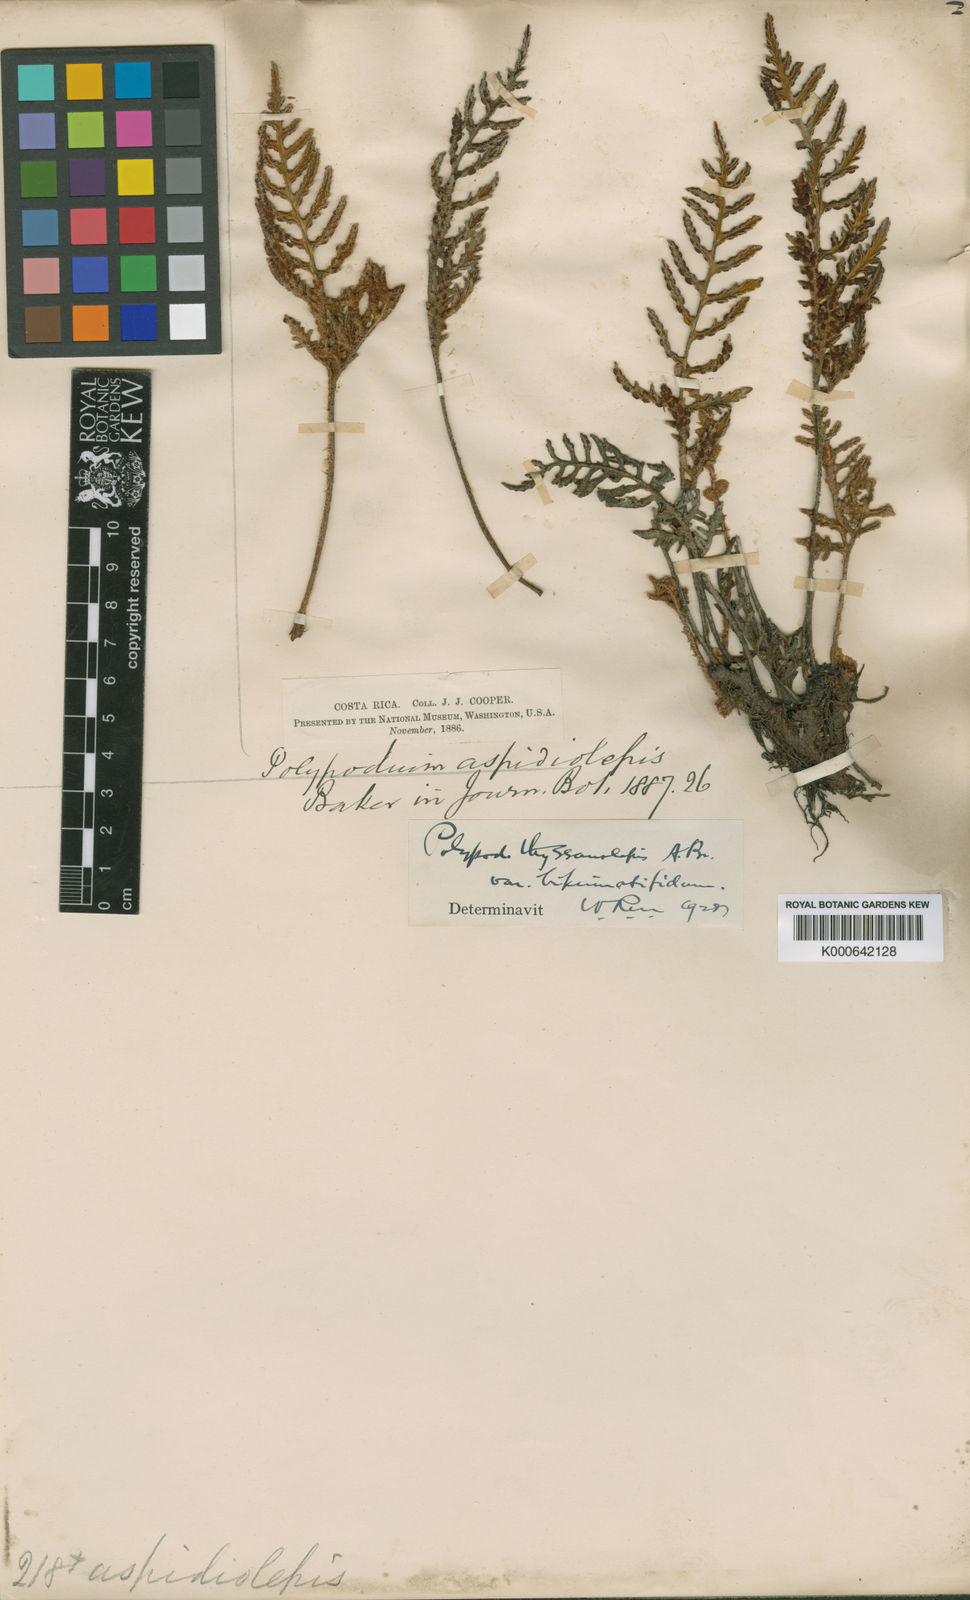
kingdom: Plantae
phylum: Tracheophyta
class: Polypodiopsida
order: Polypodiales
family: Polypodiaceae
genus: Polypodium
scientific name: Polypodium
